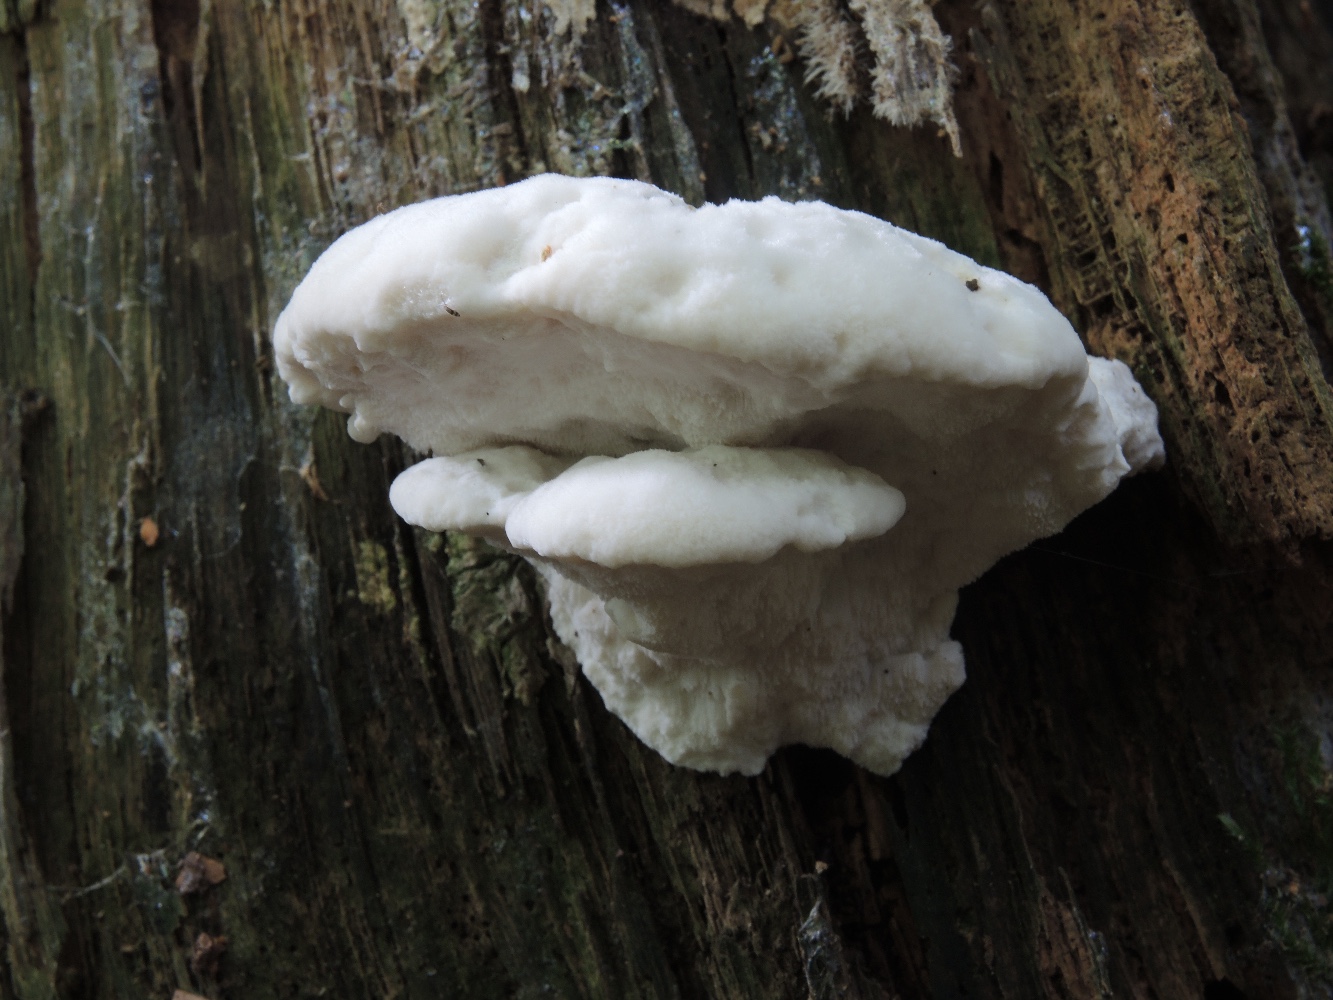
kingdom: Fungi
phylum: Basidiomycota
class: Agaricomycetes
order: Polyporales
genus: Amaropostia
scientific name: Amaropostia stiptica
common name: bitter kødporesvamp
